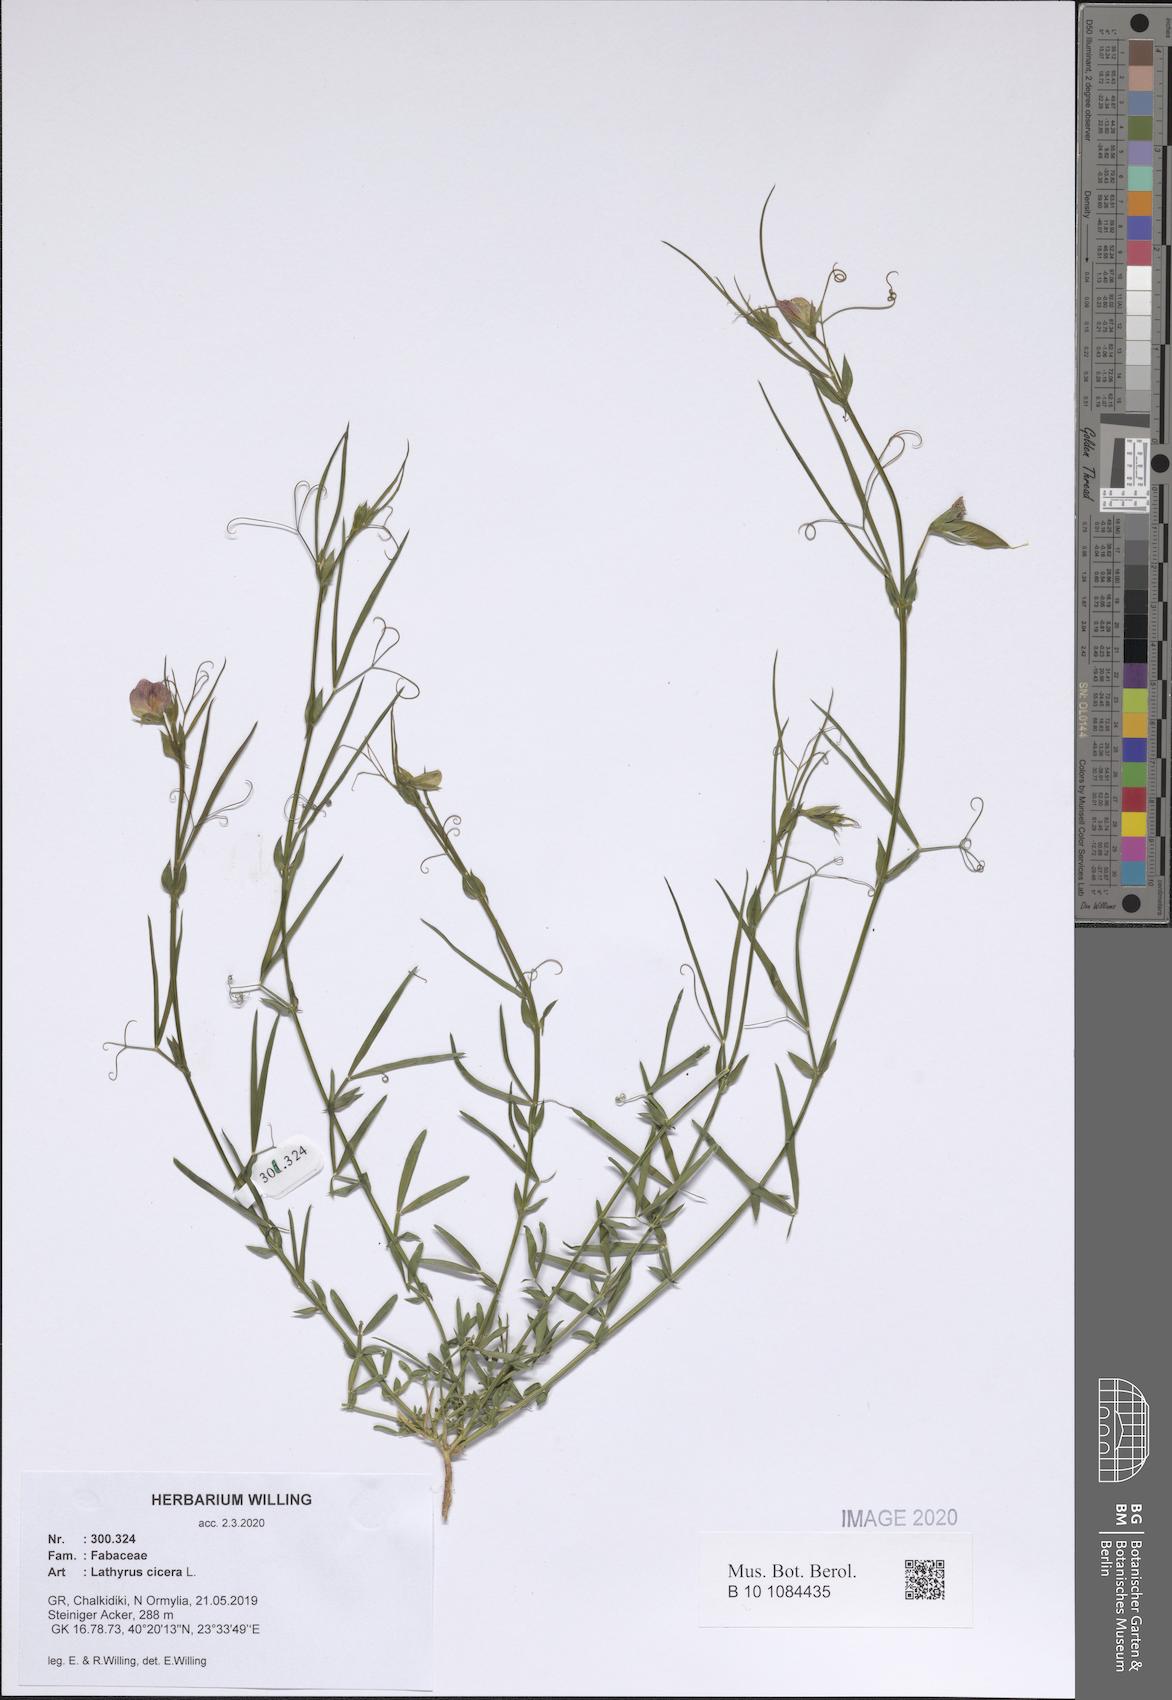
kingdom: Plantae
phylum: Tracheophyta
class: Magnoliopsida
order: Fabales
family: Fabaceae
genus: Lathyrus
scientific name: Lathyrus cicera
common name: Red vetchling
